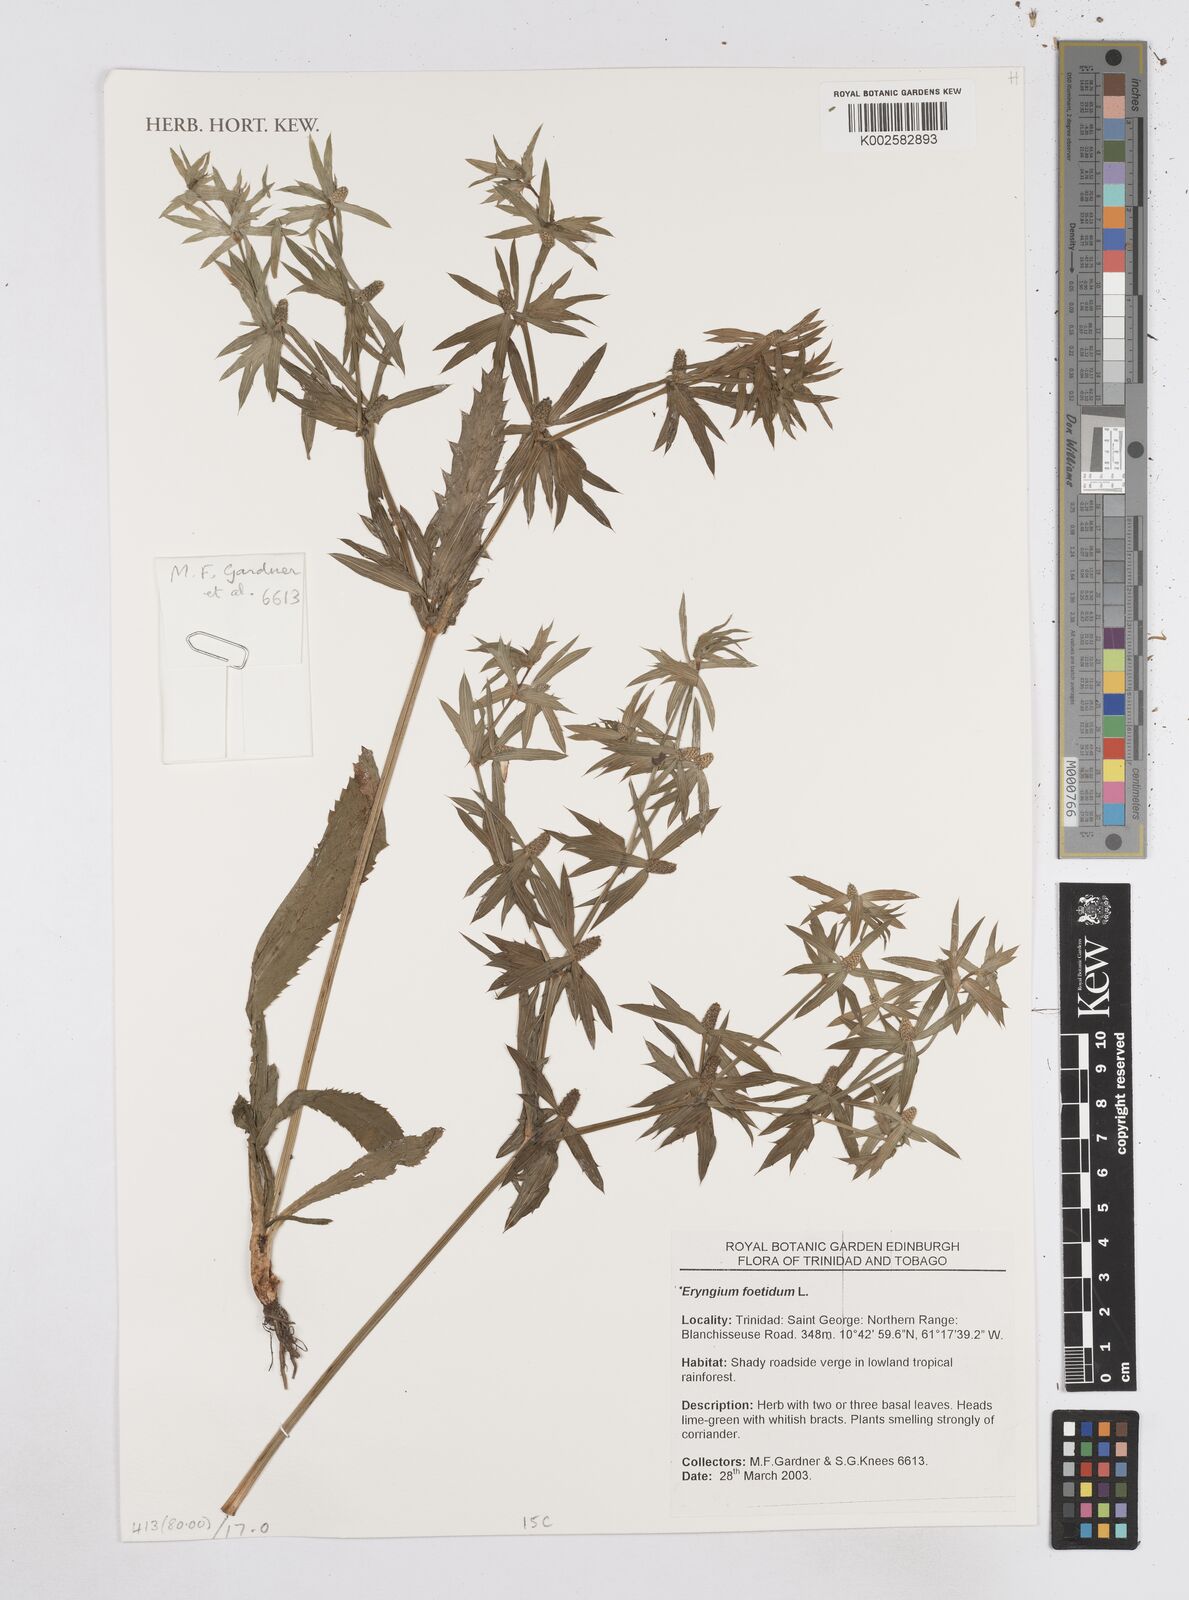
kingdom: Plantae
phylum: Tracheophyta
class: Magnoliopsida
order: Apiales
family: Apiaceae
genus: Eryngium
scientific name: Eryngium foetidum
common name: Fitweed
